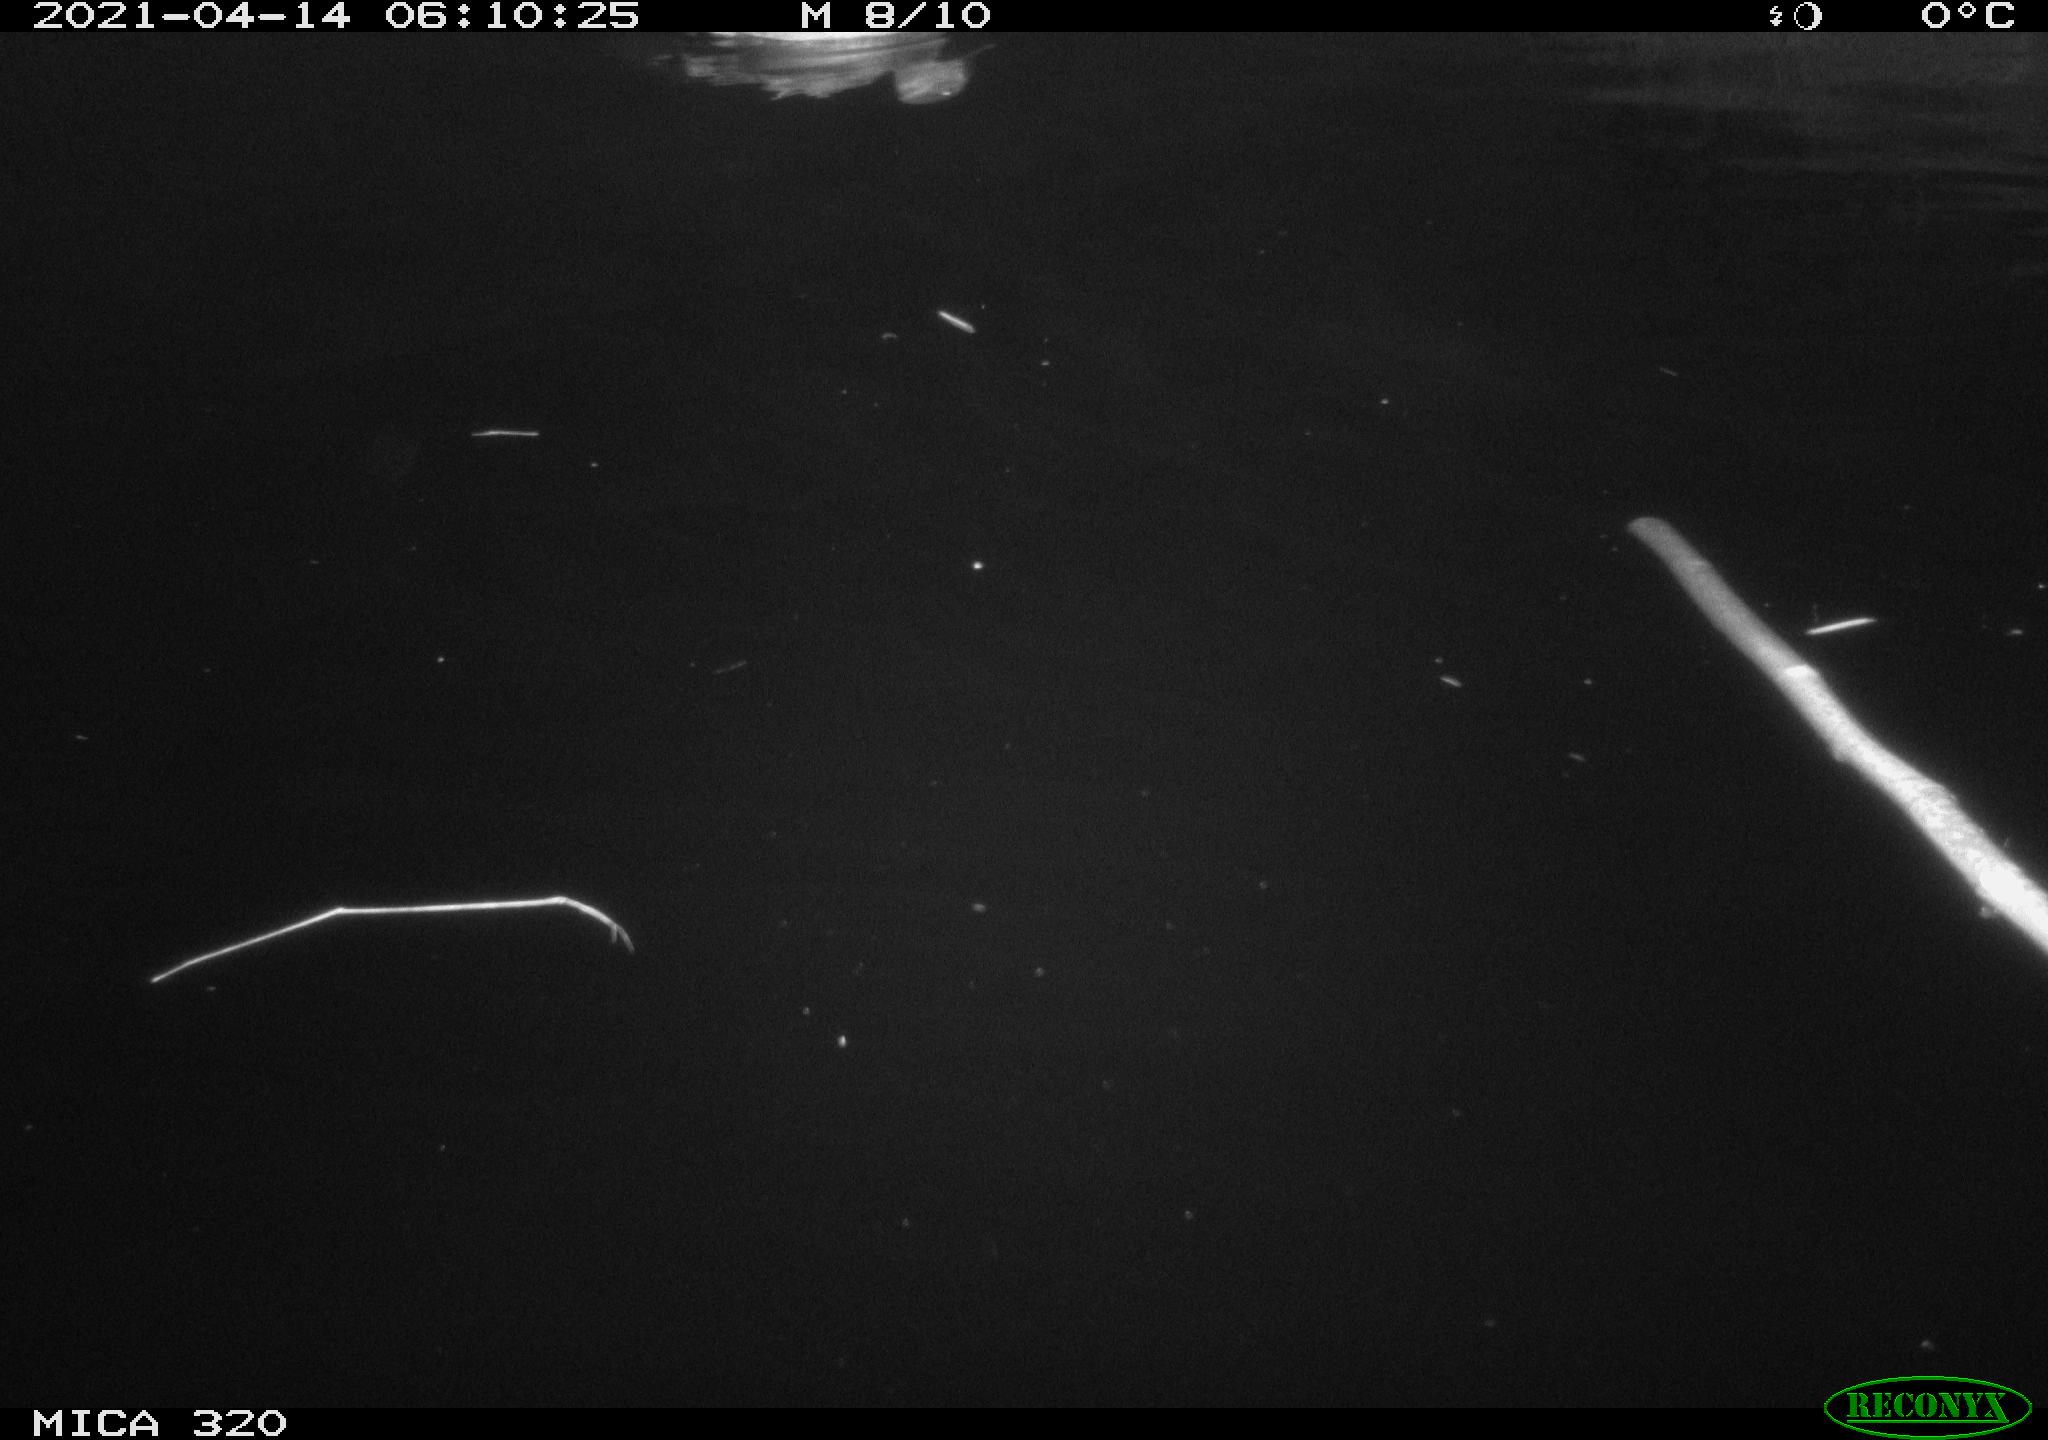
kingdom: Animalia
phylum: Chordata
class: Aves
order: Anseriformes
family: Anatidae
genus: Anas
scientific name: Anas platyrhynchos
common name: Mallard
